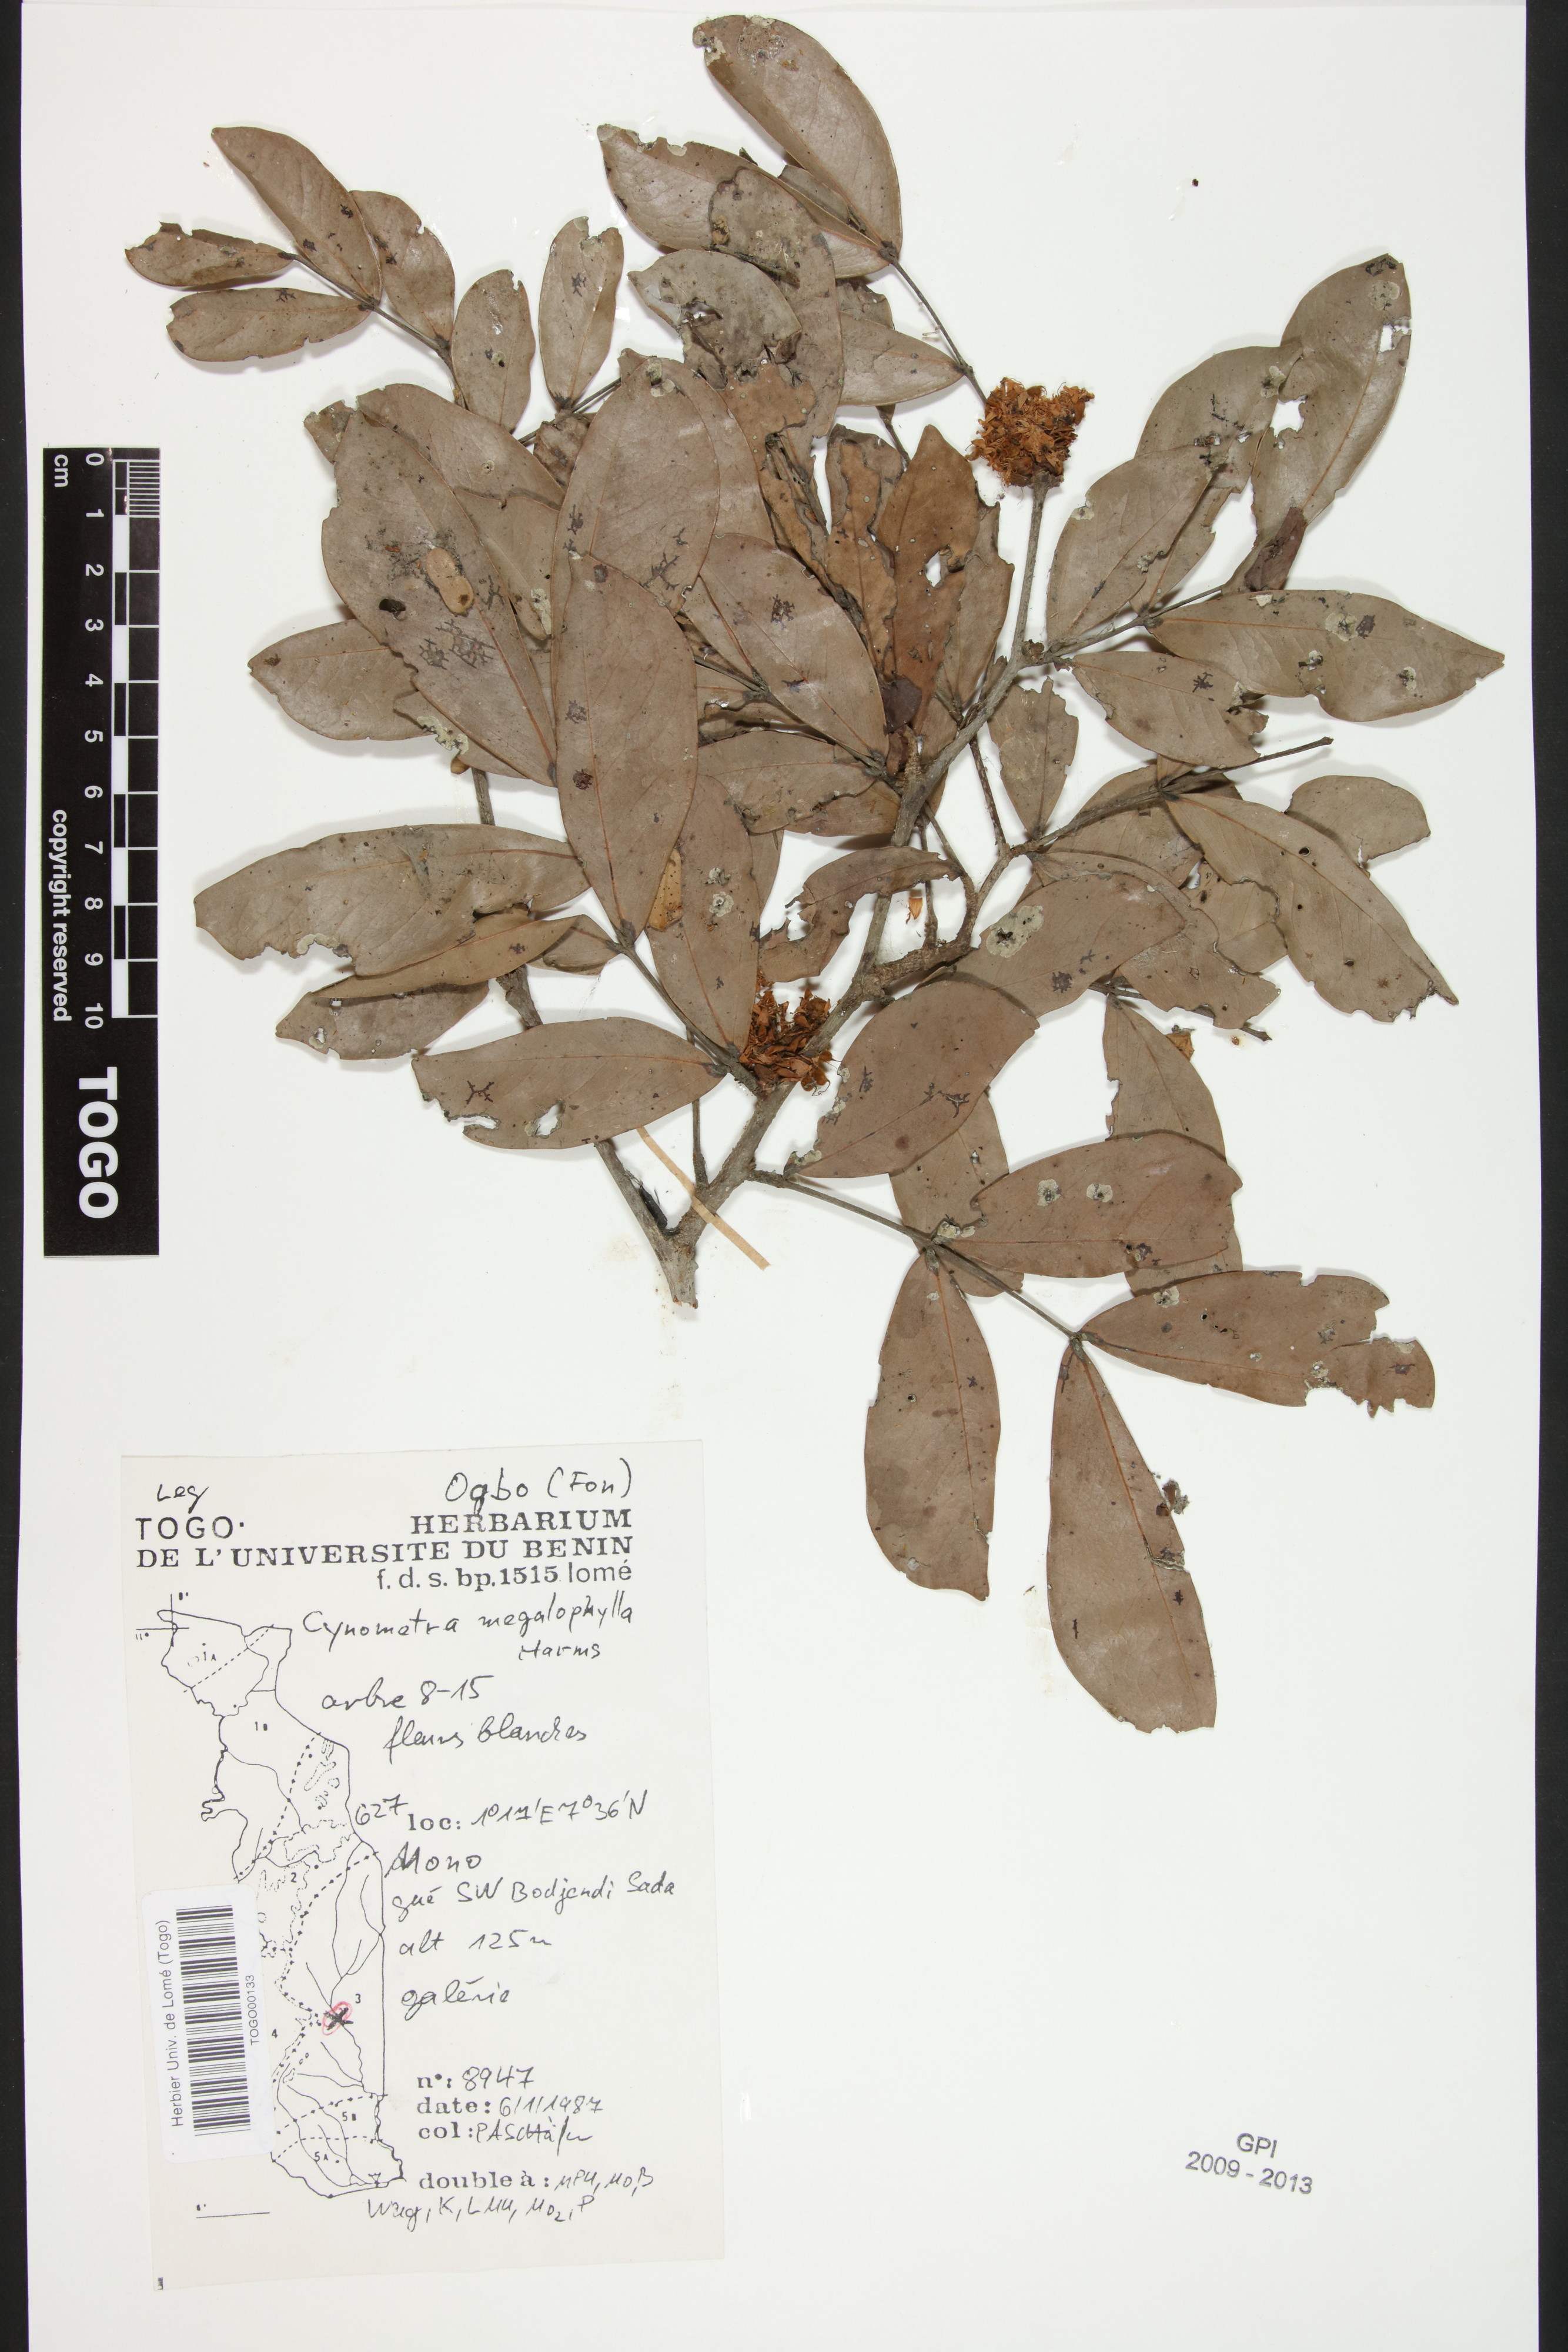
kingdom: Plantae
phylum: Tracheophyta
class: Magnoliopsida
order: Fabales
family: Fabaceae
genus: Cynometra
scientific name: Cynometra megalophylla
